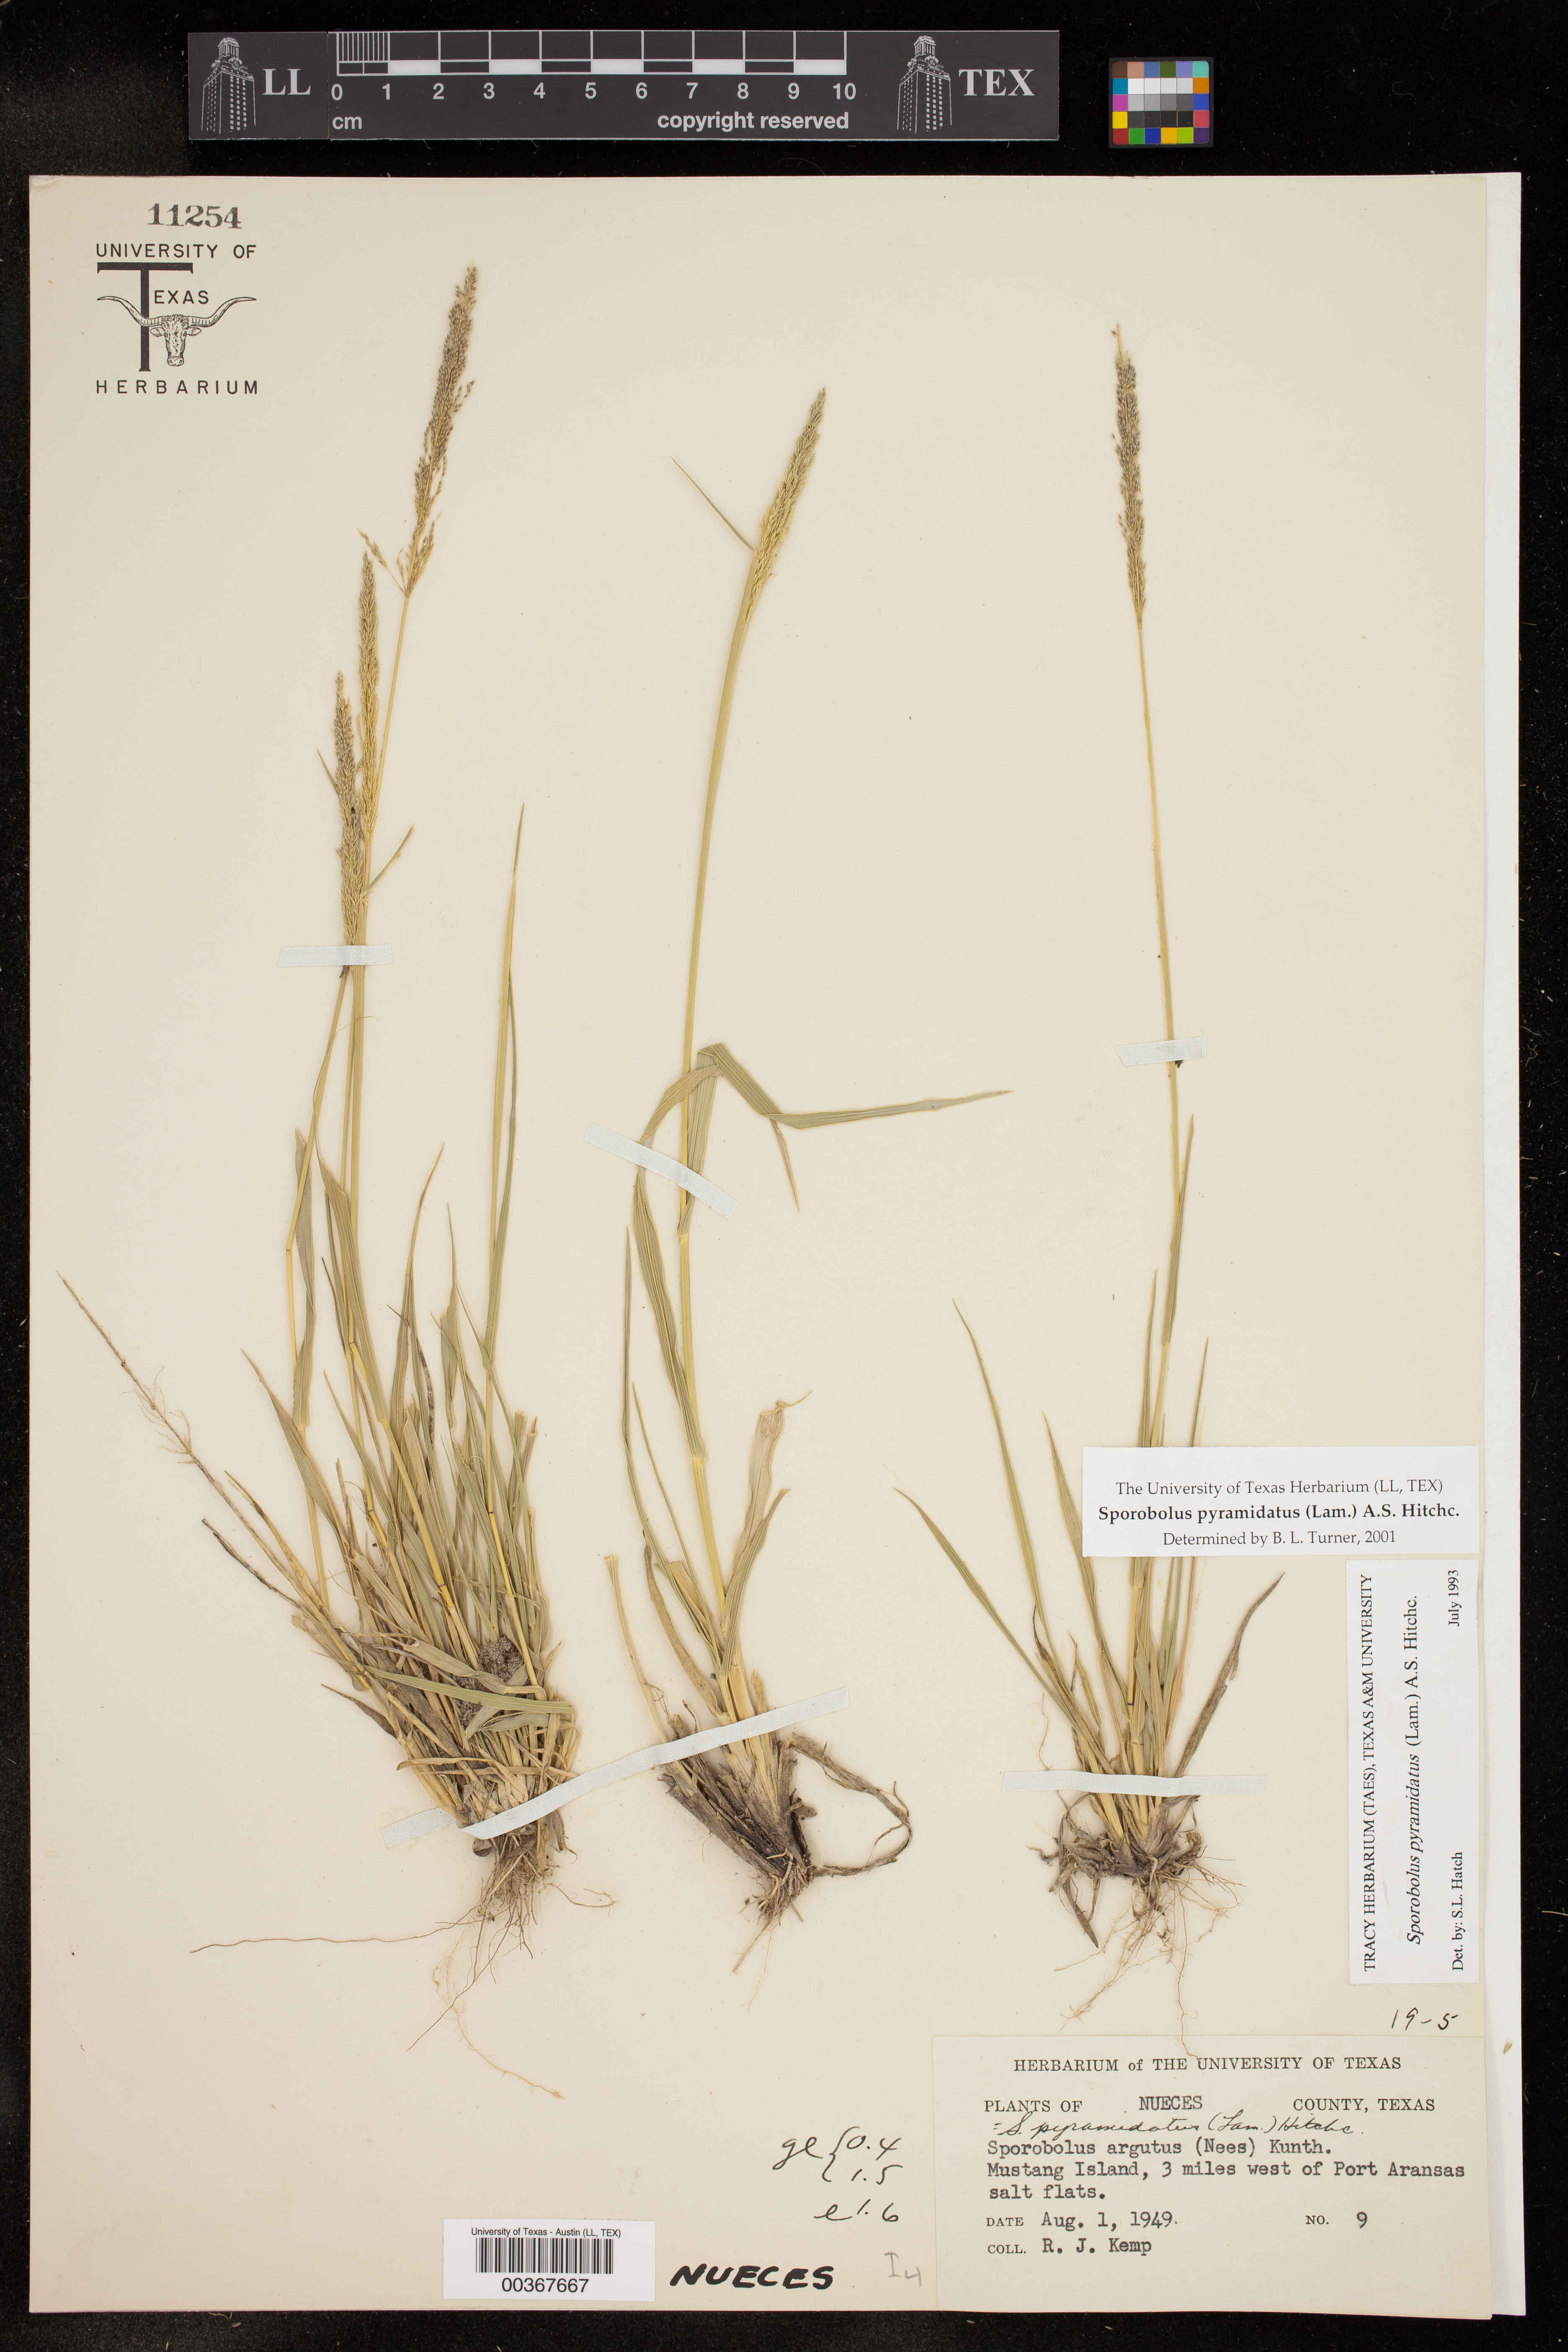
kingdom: Plantae
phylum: Tracheophyta
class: Liliopsida
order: Poales
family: Poaceae
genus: Sporobolus
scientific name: Sporobolus pyramidatus
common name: Whorled dropseed
